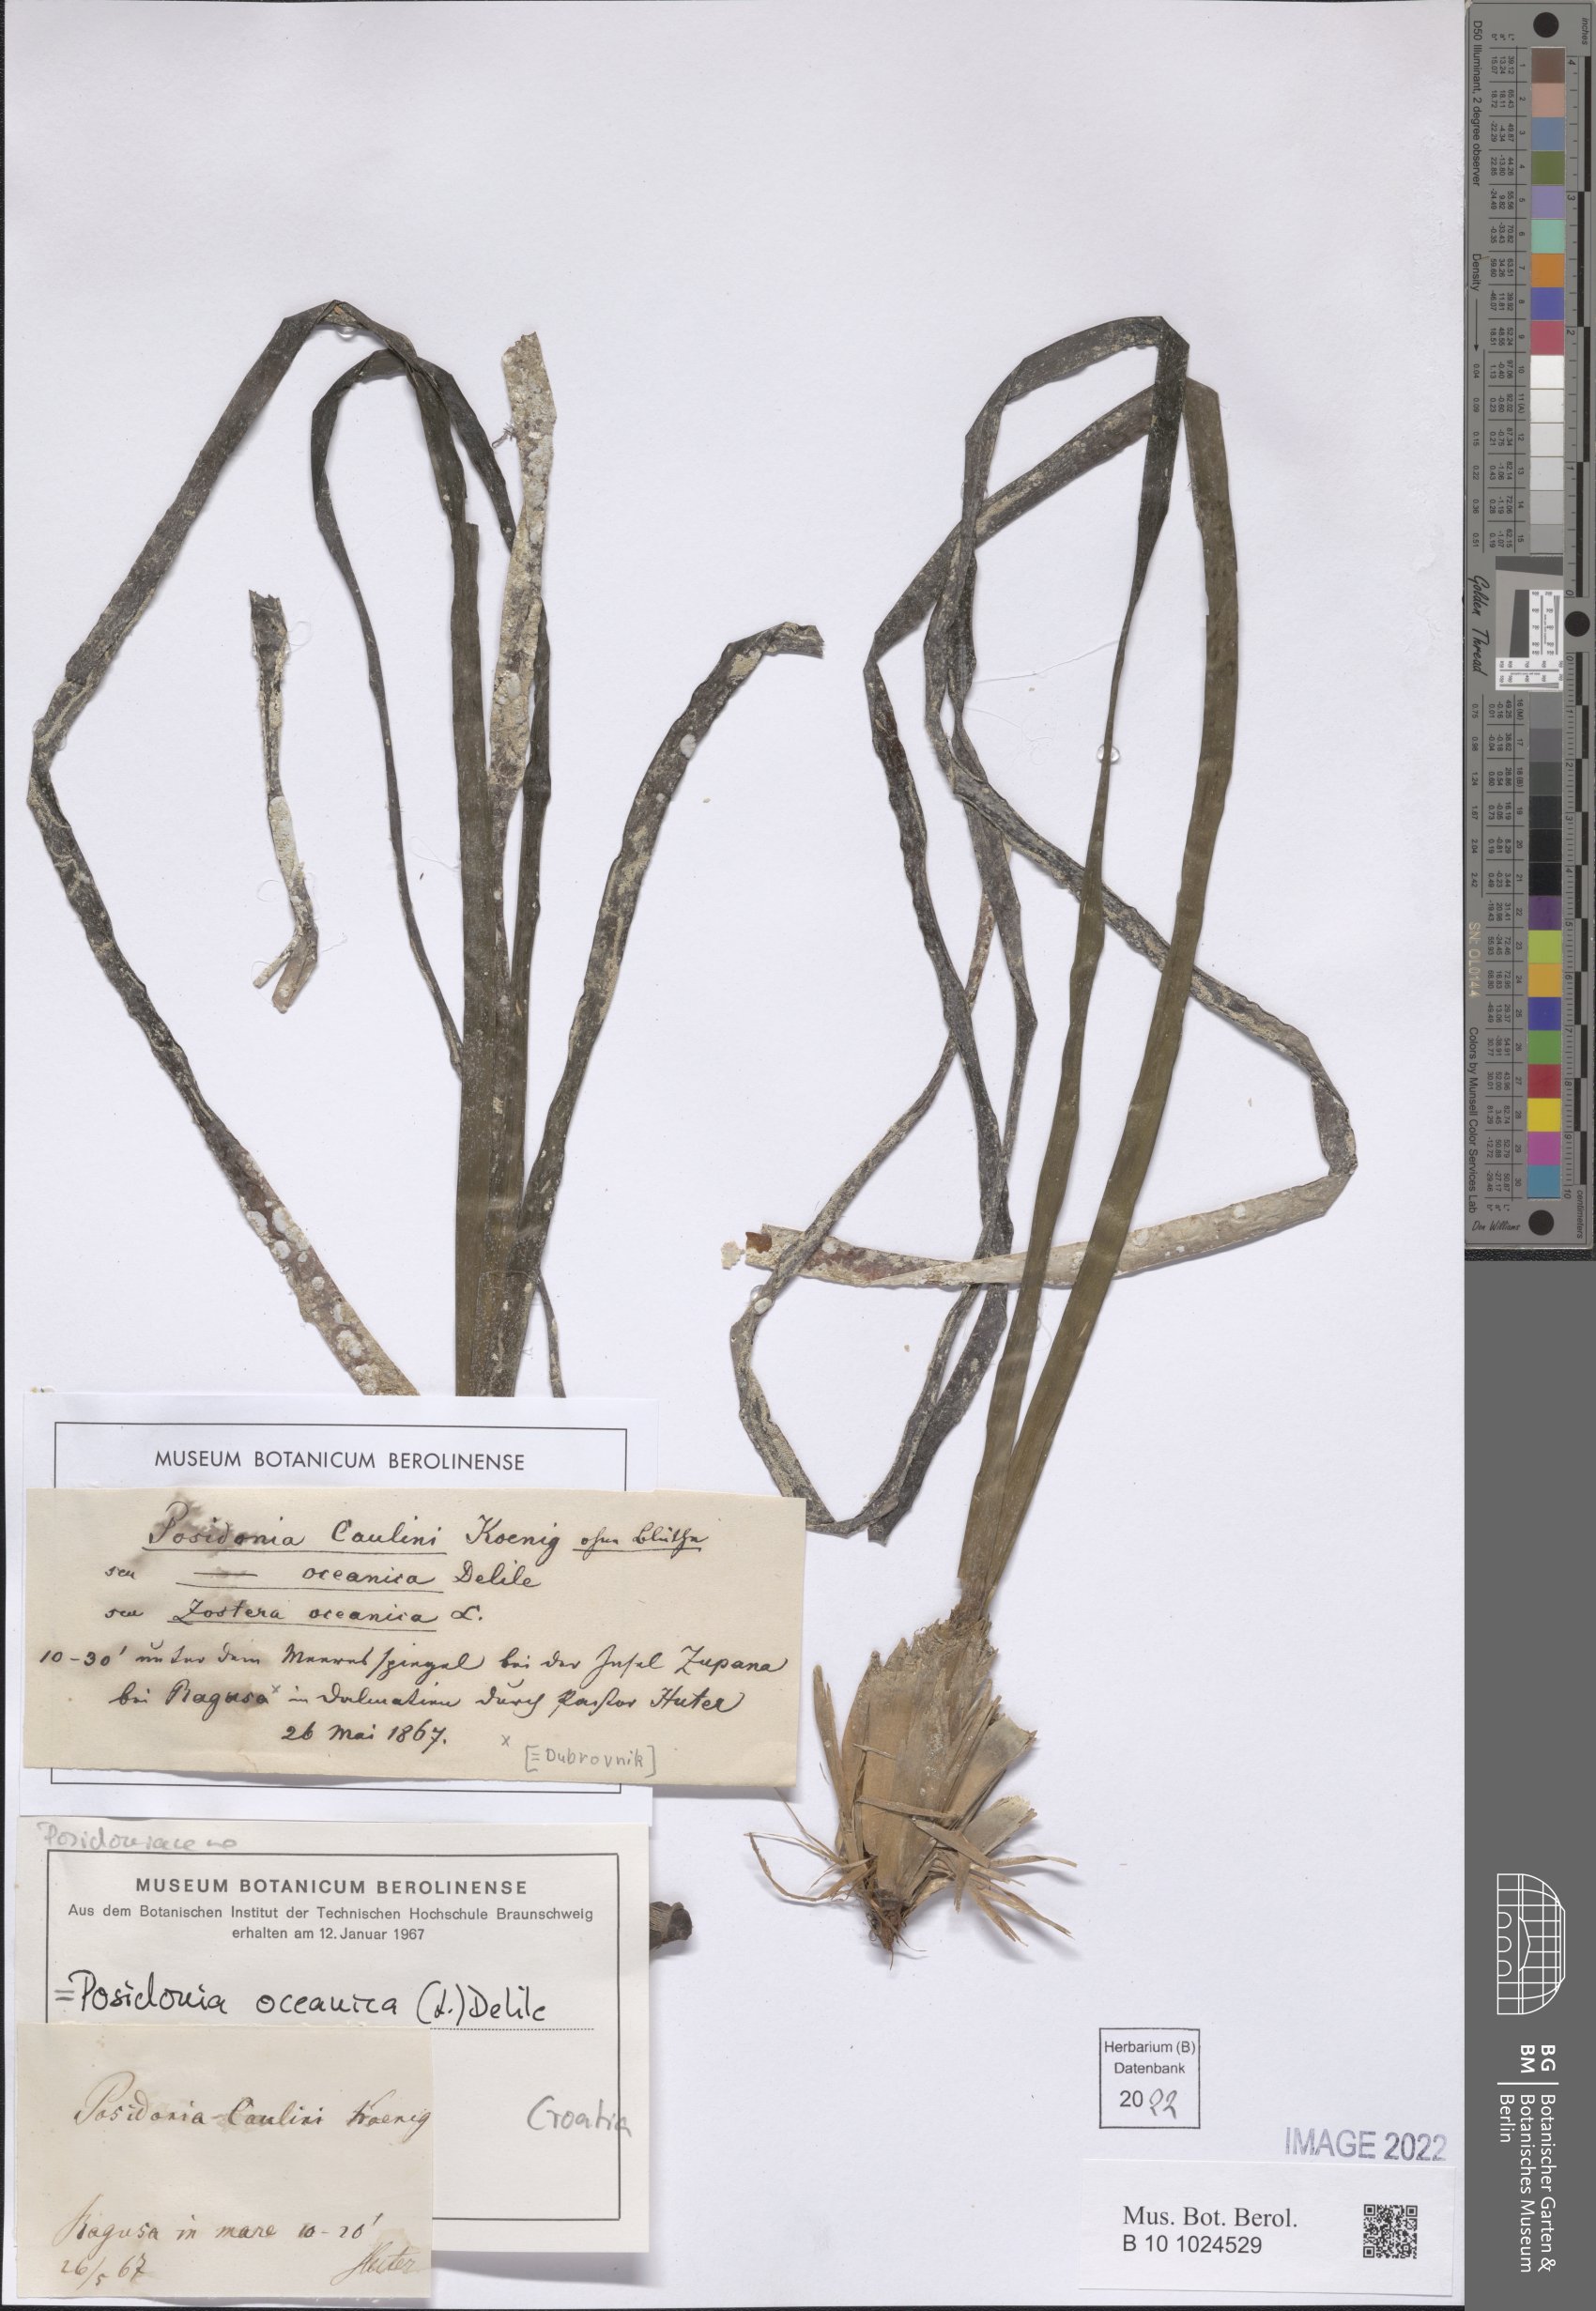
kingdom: Plantae
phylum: Tracheophyta
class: Liliopsida
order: Alismatales
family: Posidoniaceae
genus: Posidonia
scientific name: Posidonia oceanica
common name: Mediterranean tapeweed
